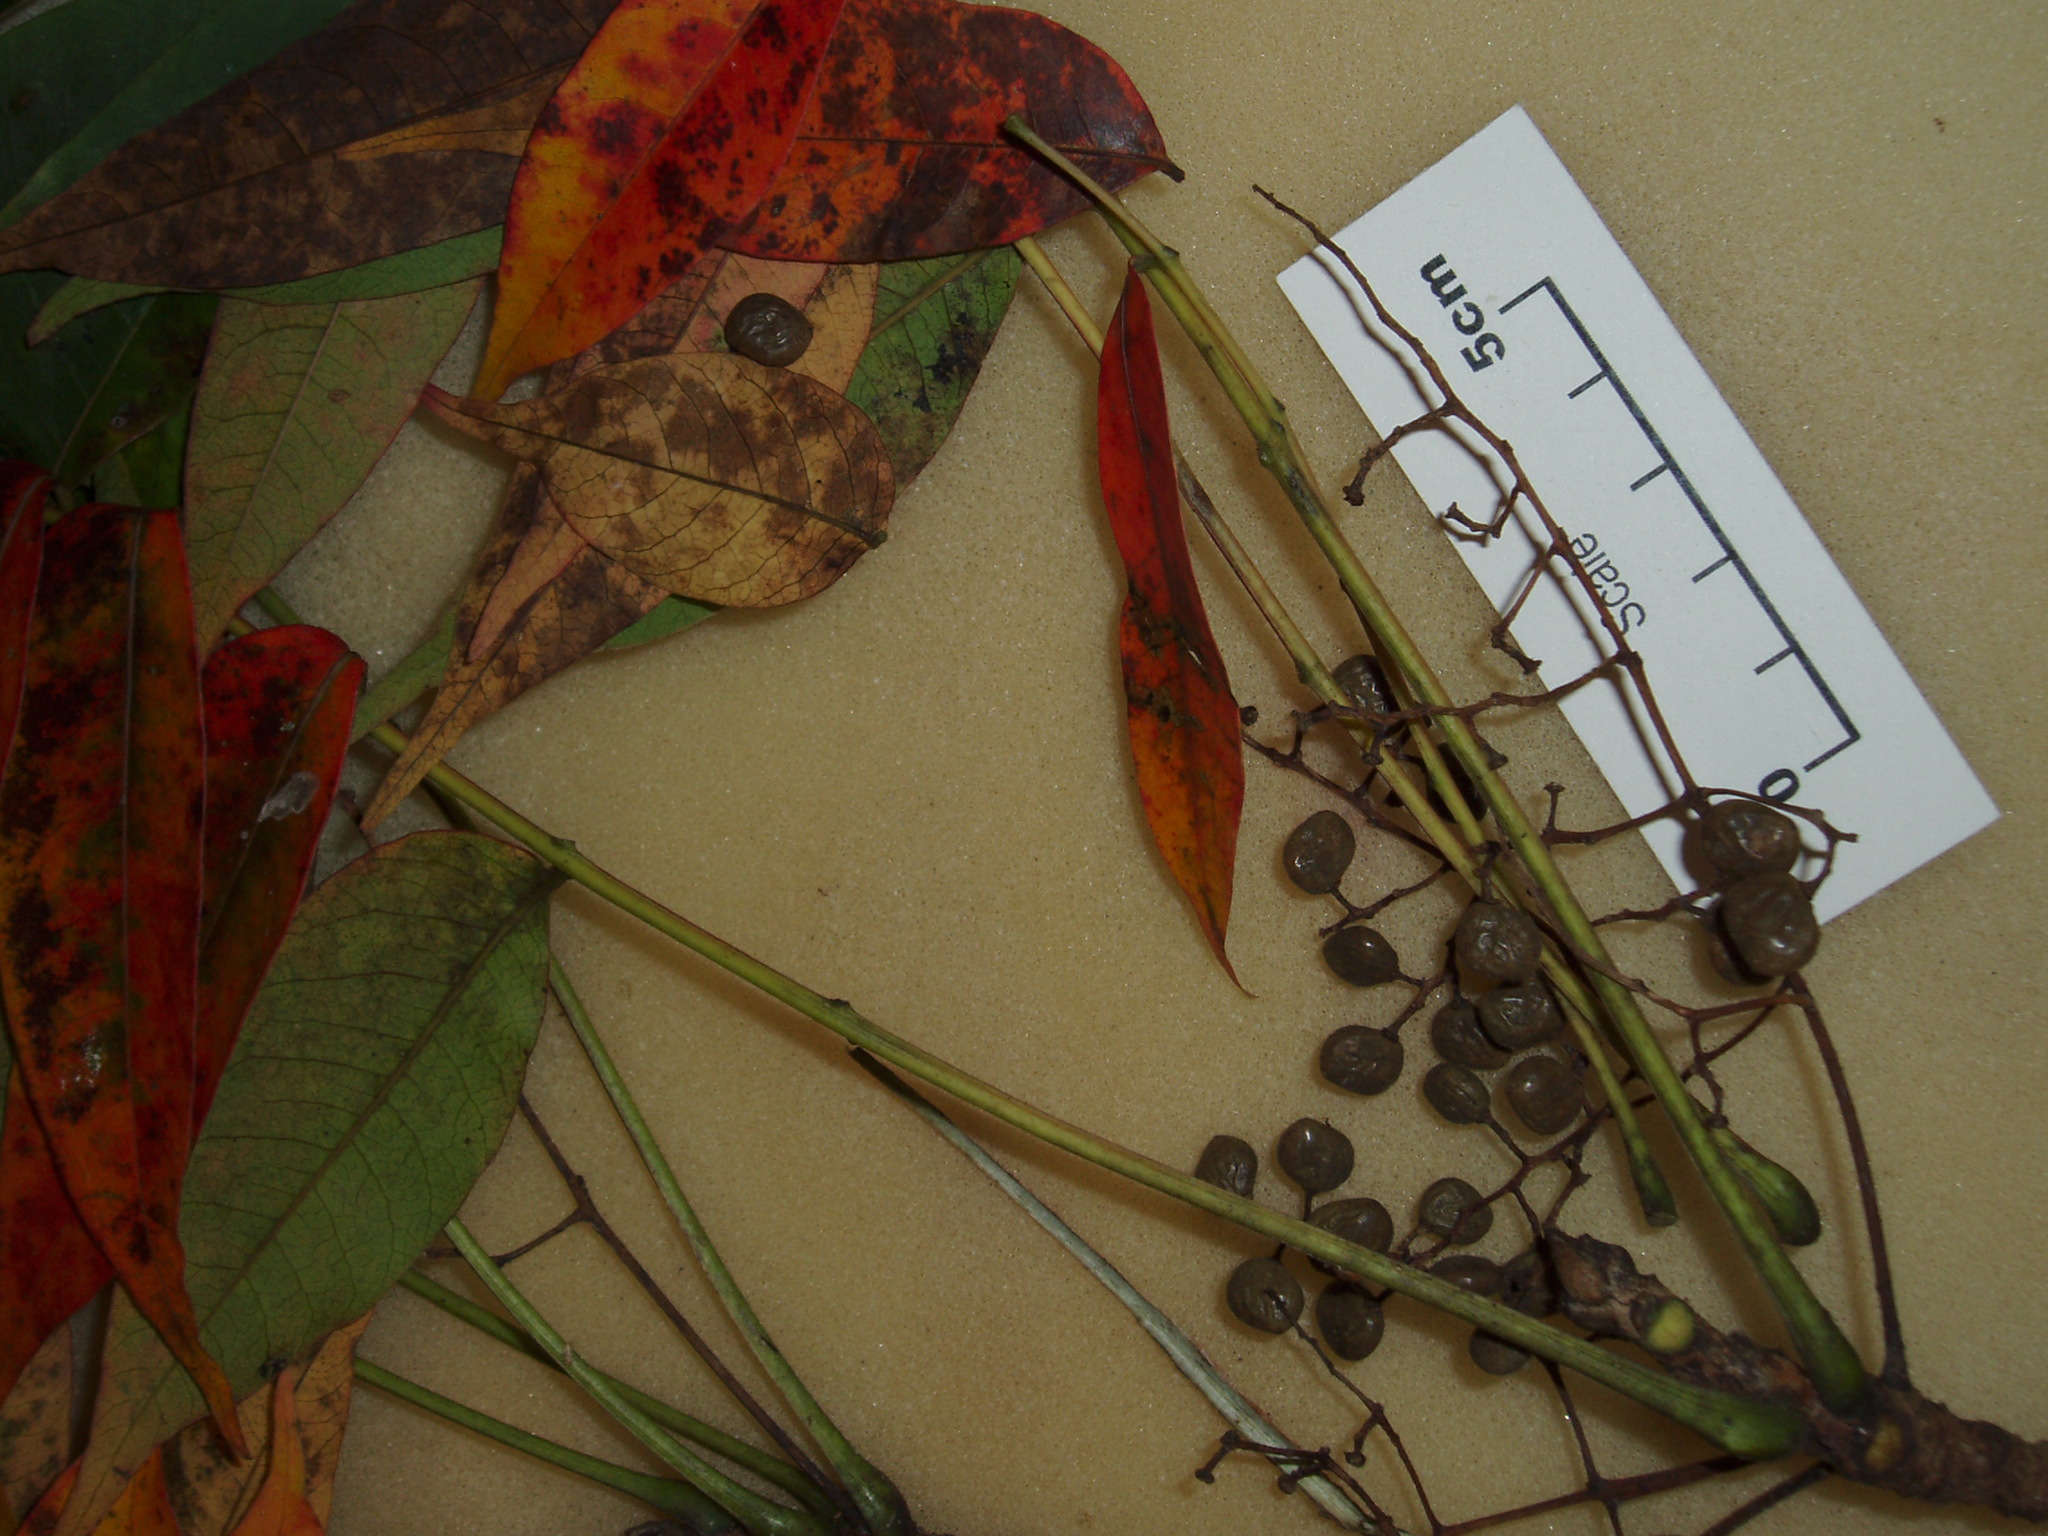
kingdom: Plantae
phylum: Tracheophyta
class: Magnoliopsida
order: Sapindales
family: Anacardiaceae
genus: Toxicodendron
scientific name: Toxicodendron succedaneum
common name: Wax tree
